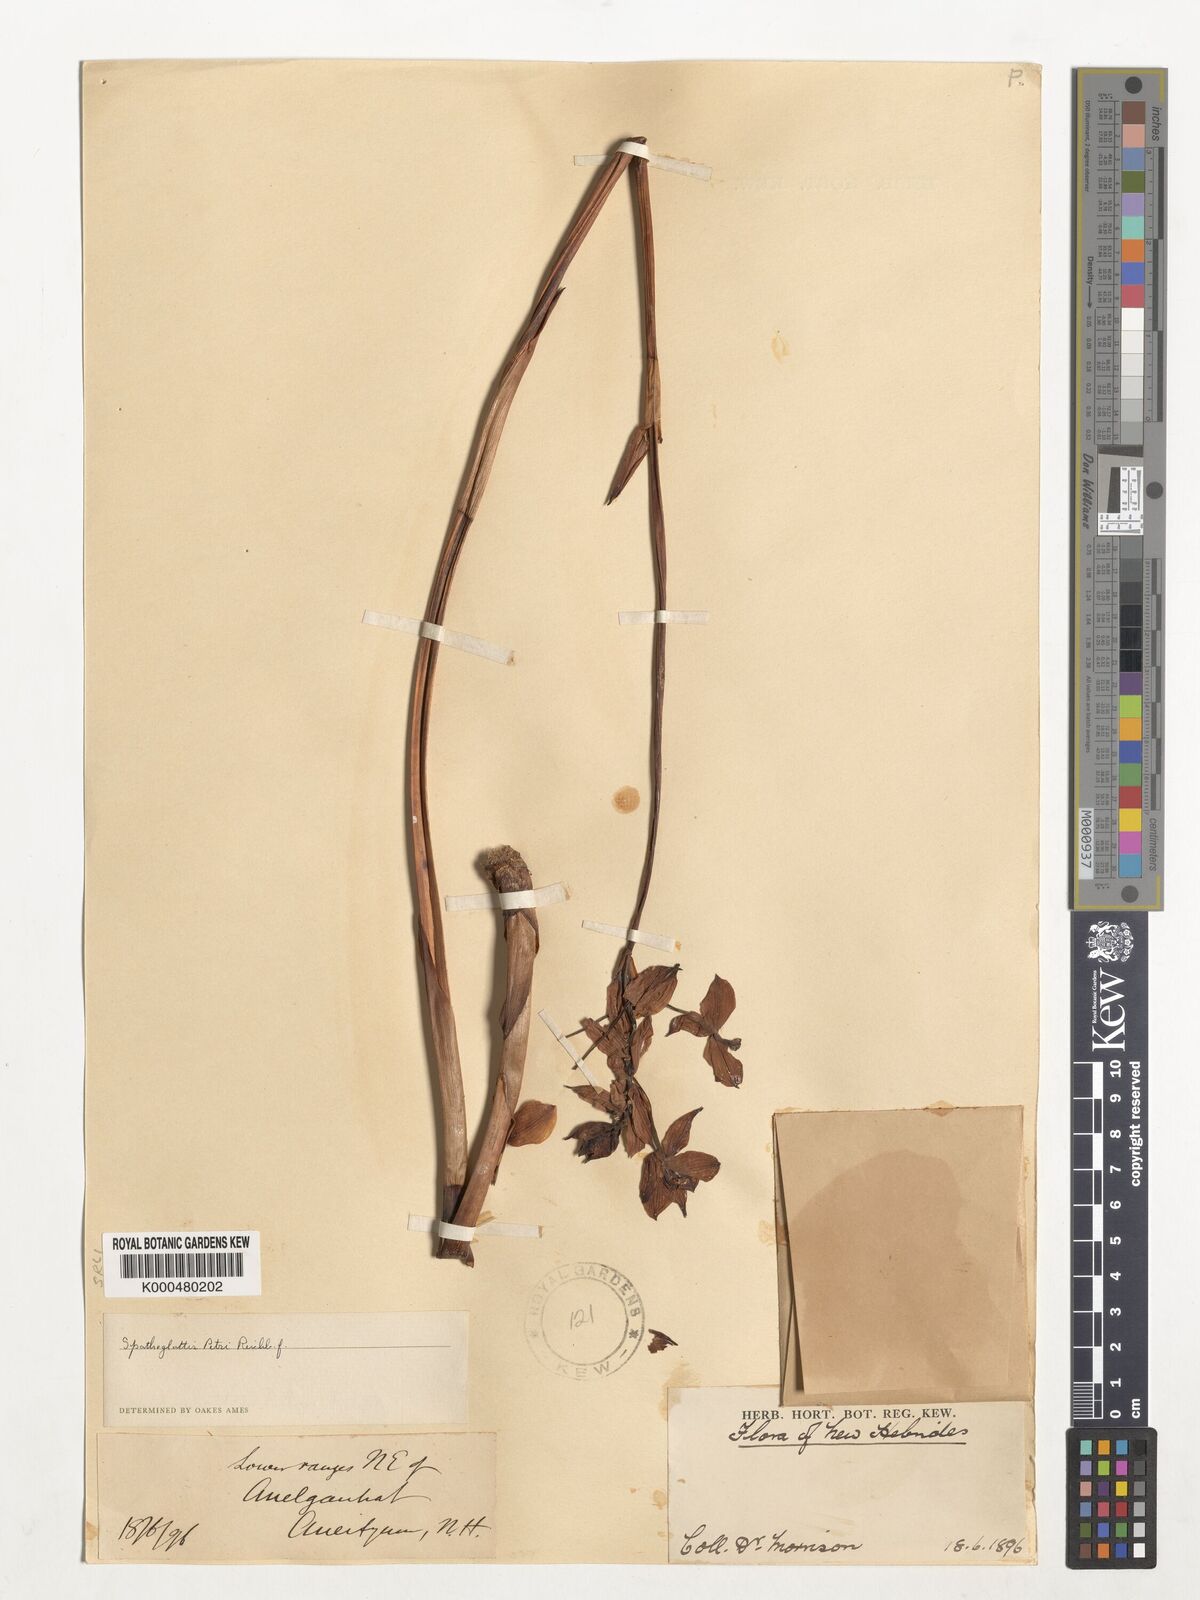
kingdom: Plantae
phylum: Tracheophyta
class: Liliopsida
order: Asparagales
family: Orchidaceae
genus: Spathoglottis
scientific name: Spathoglottis petri
